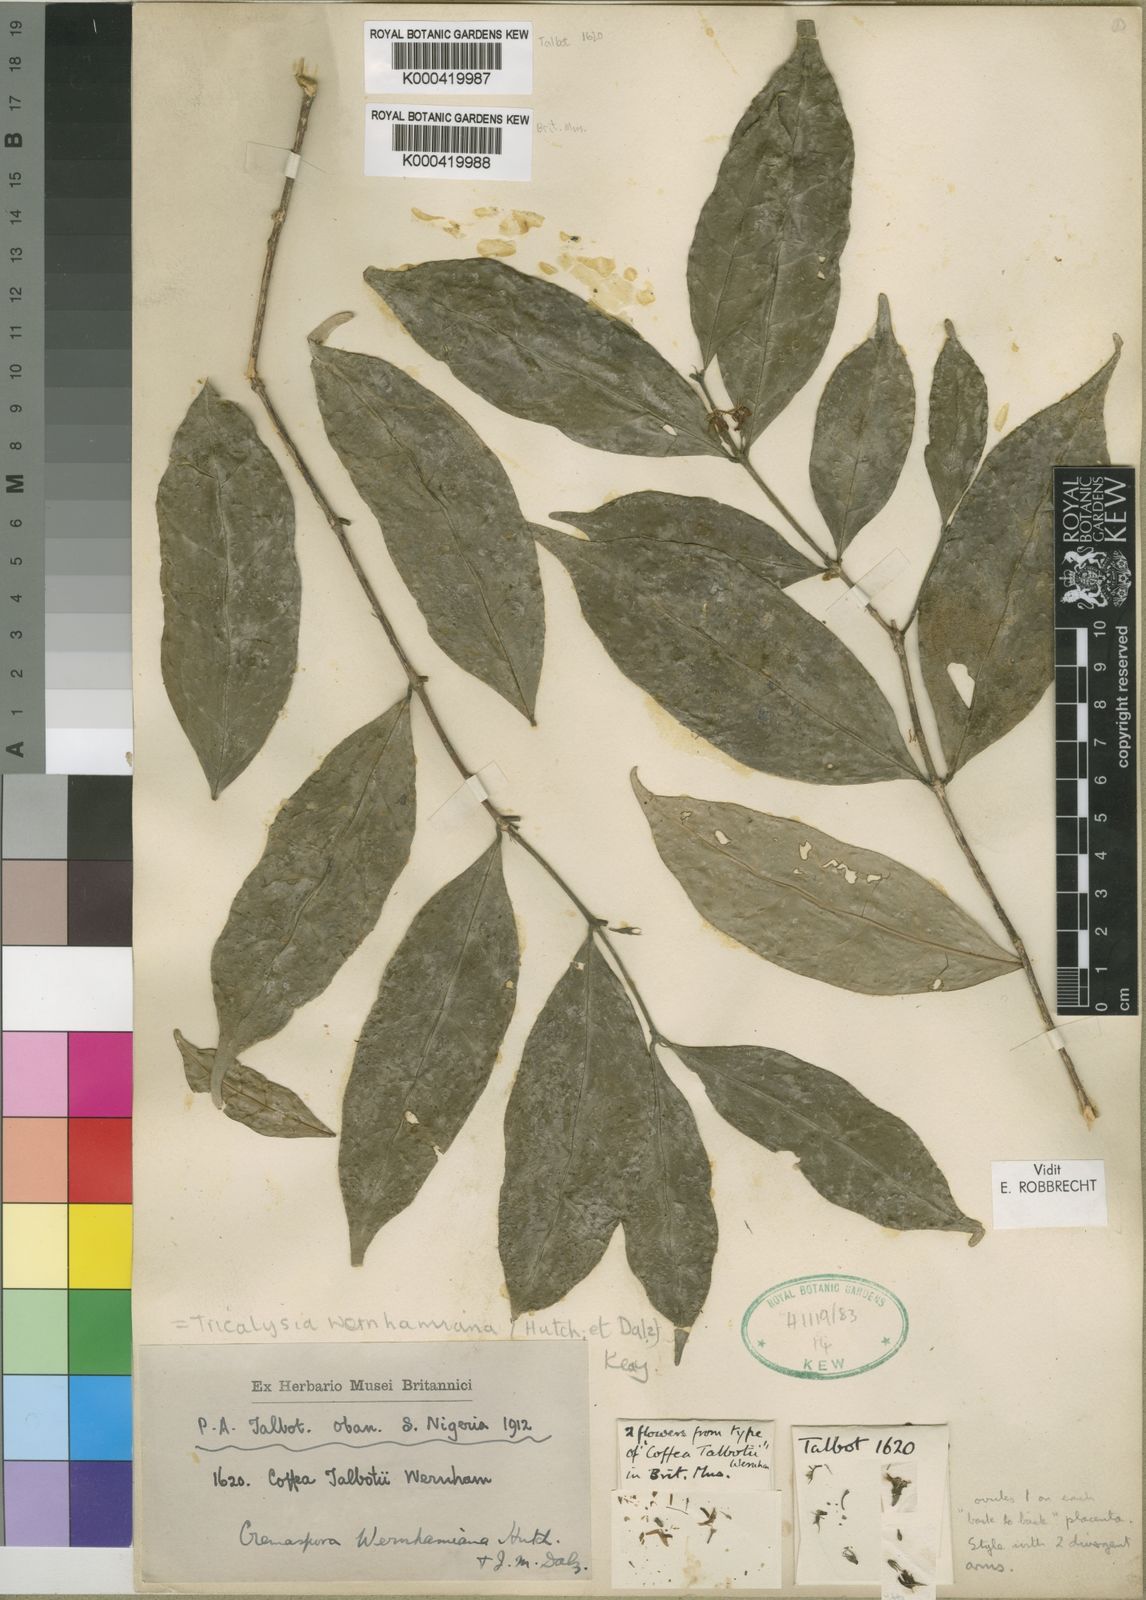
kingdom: Plantae
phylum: Tracheophyta
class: Magnoliopsida
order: Gentianales
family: Rubiaceae
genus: Tricalysia
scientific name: Tricalysia wernhamiana
